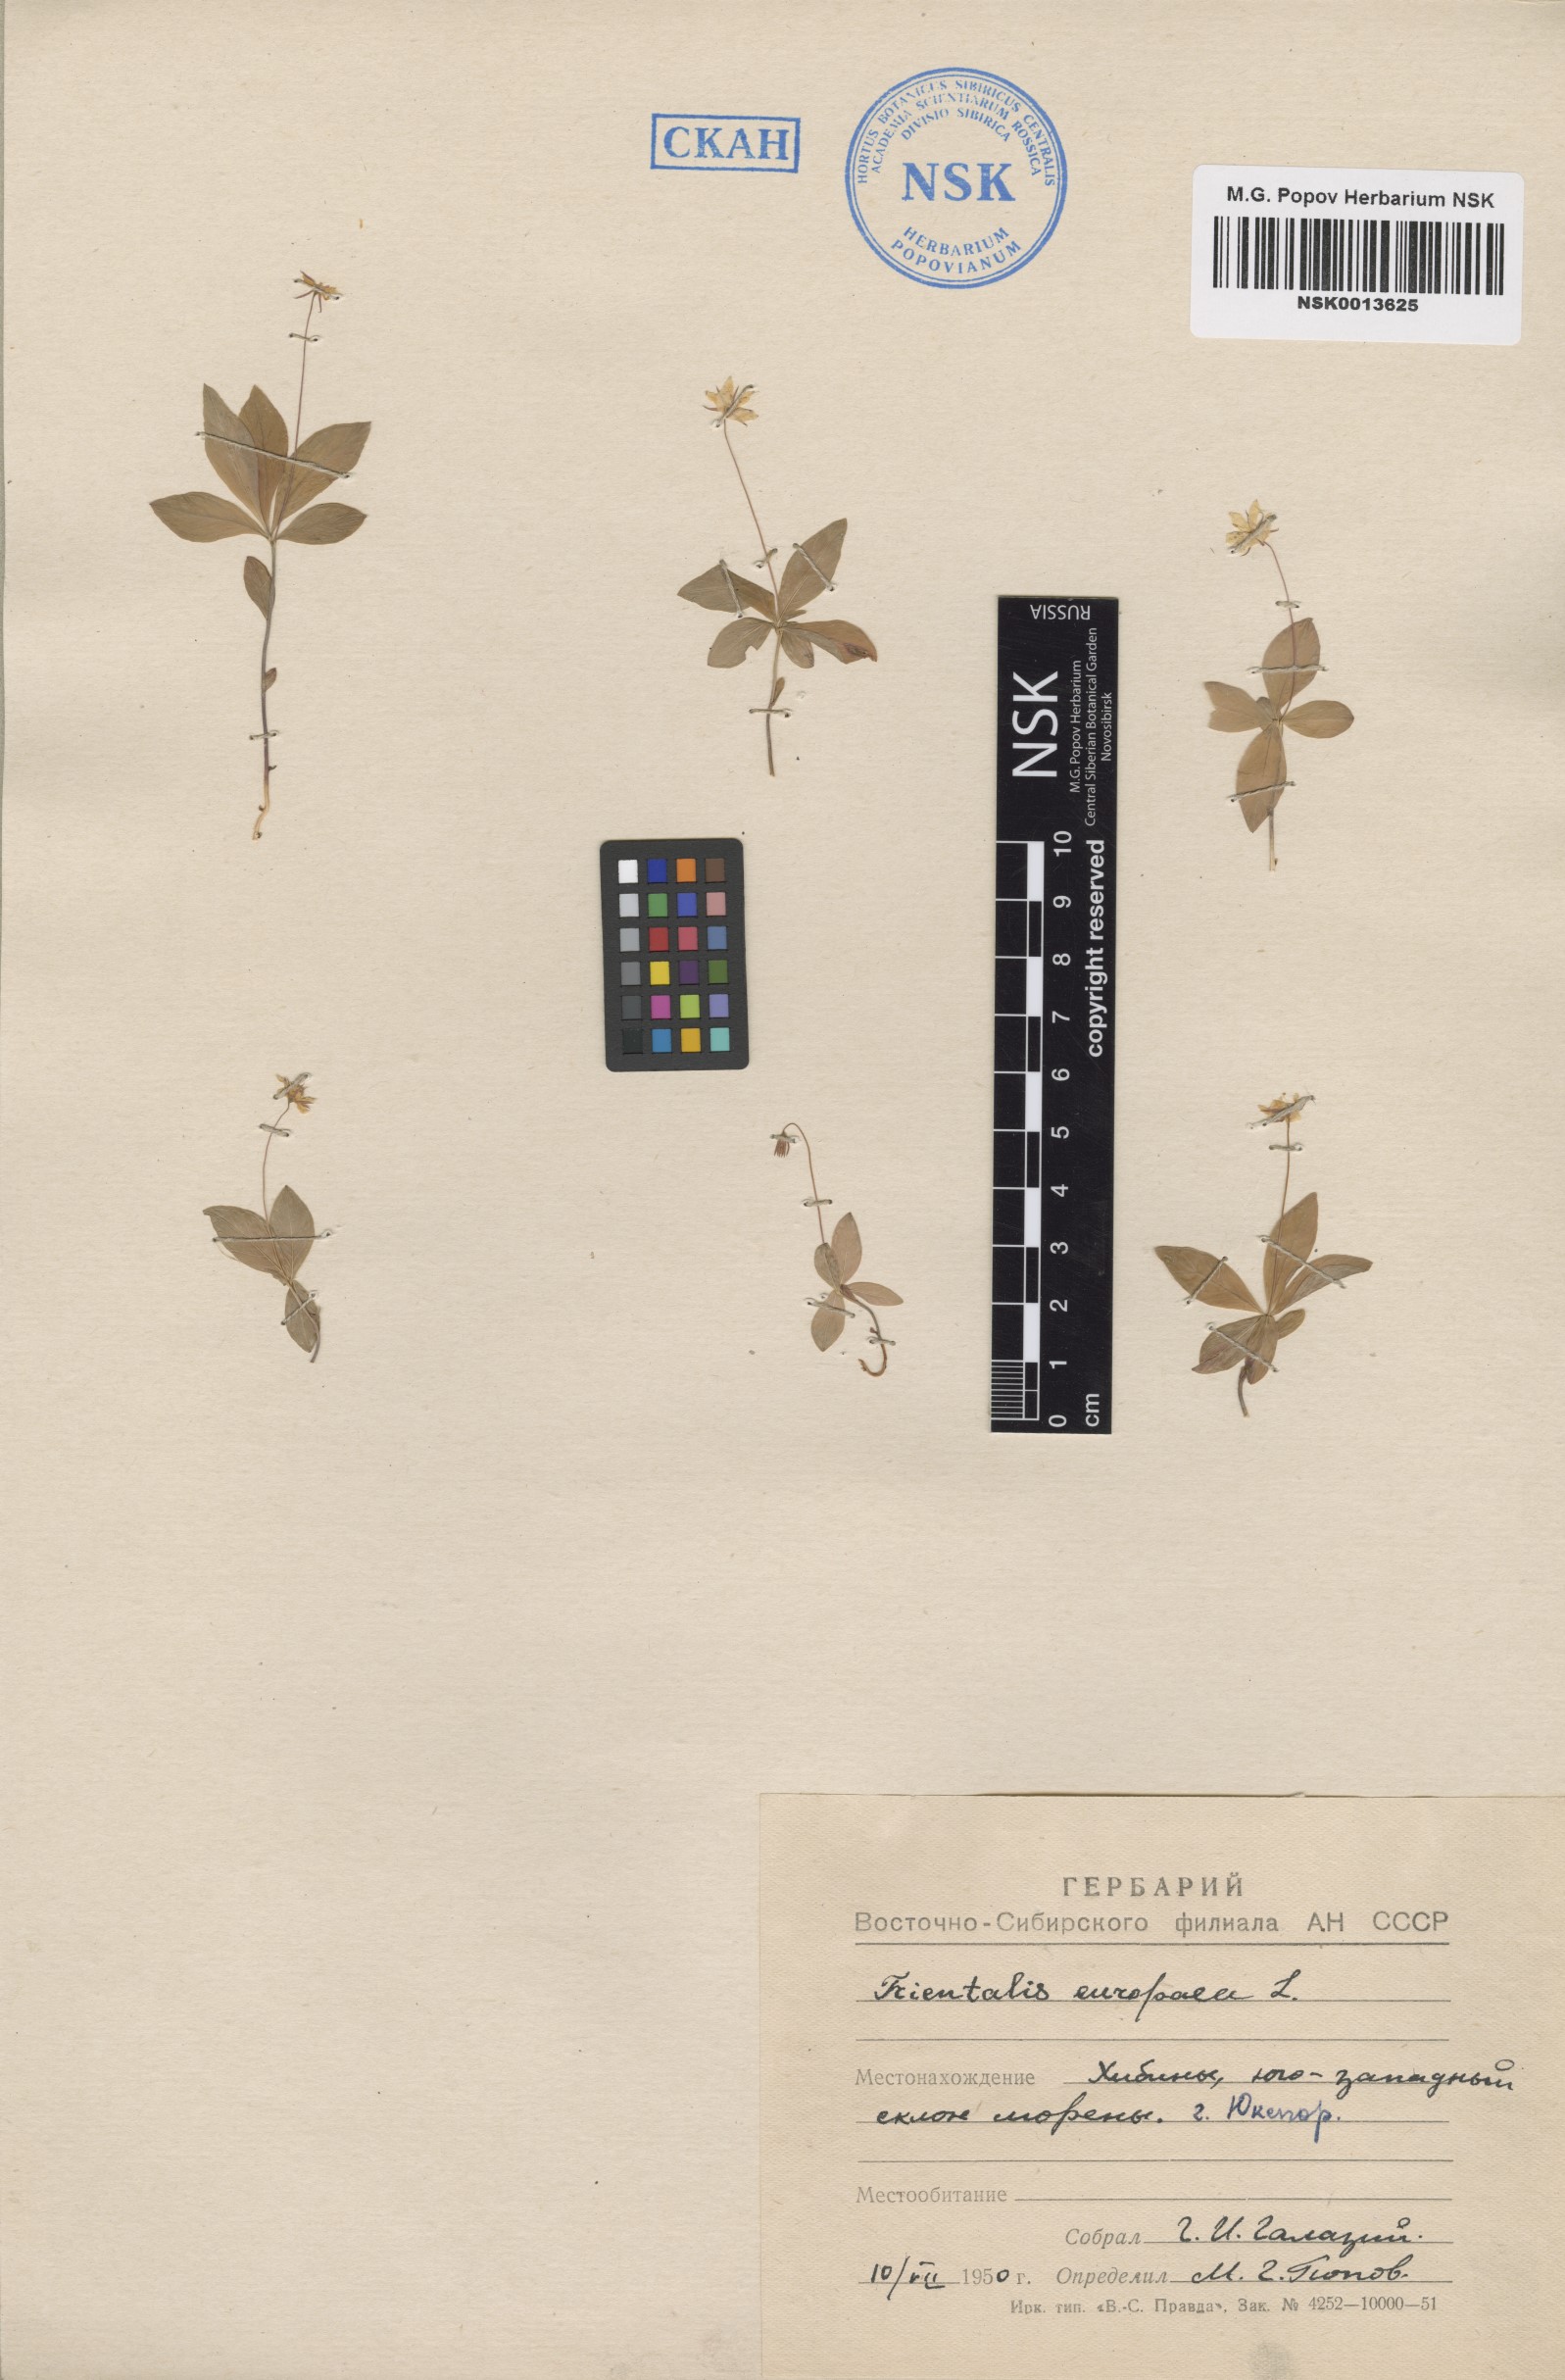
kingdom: Plantae
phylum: Tracheophyta
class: Magnoliopsida
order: Ericales
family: Primulaceae
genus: Lysimachia
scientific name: Lysimachia europaea
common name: Arctic starflower
